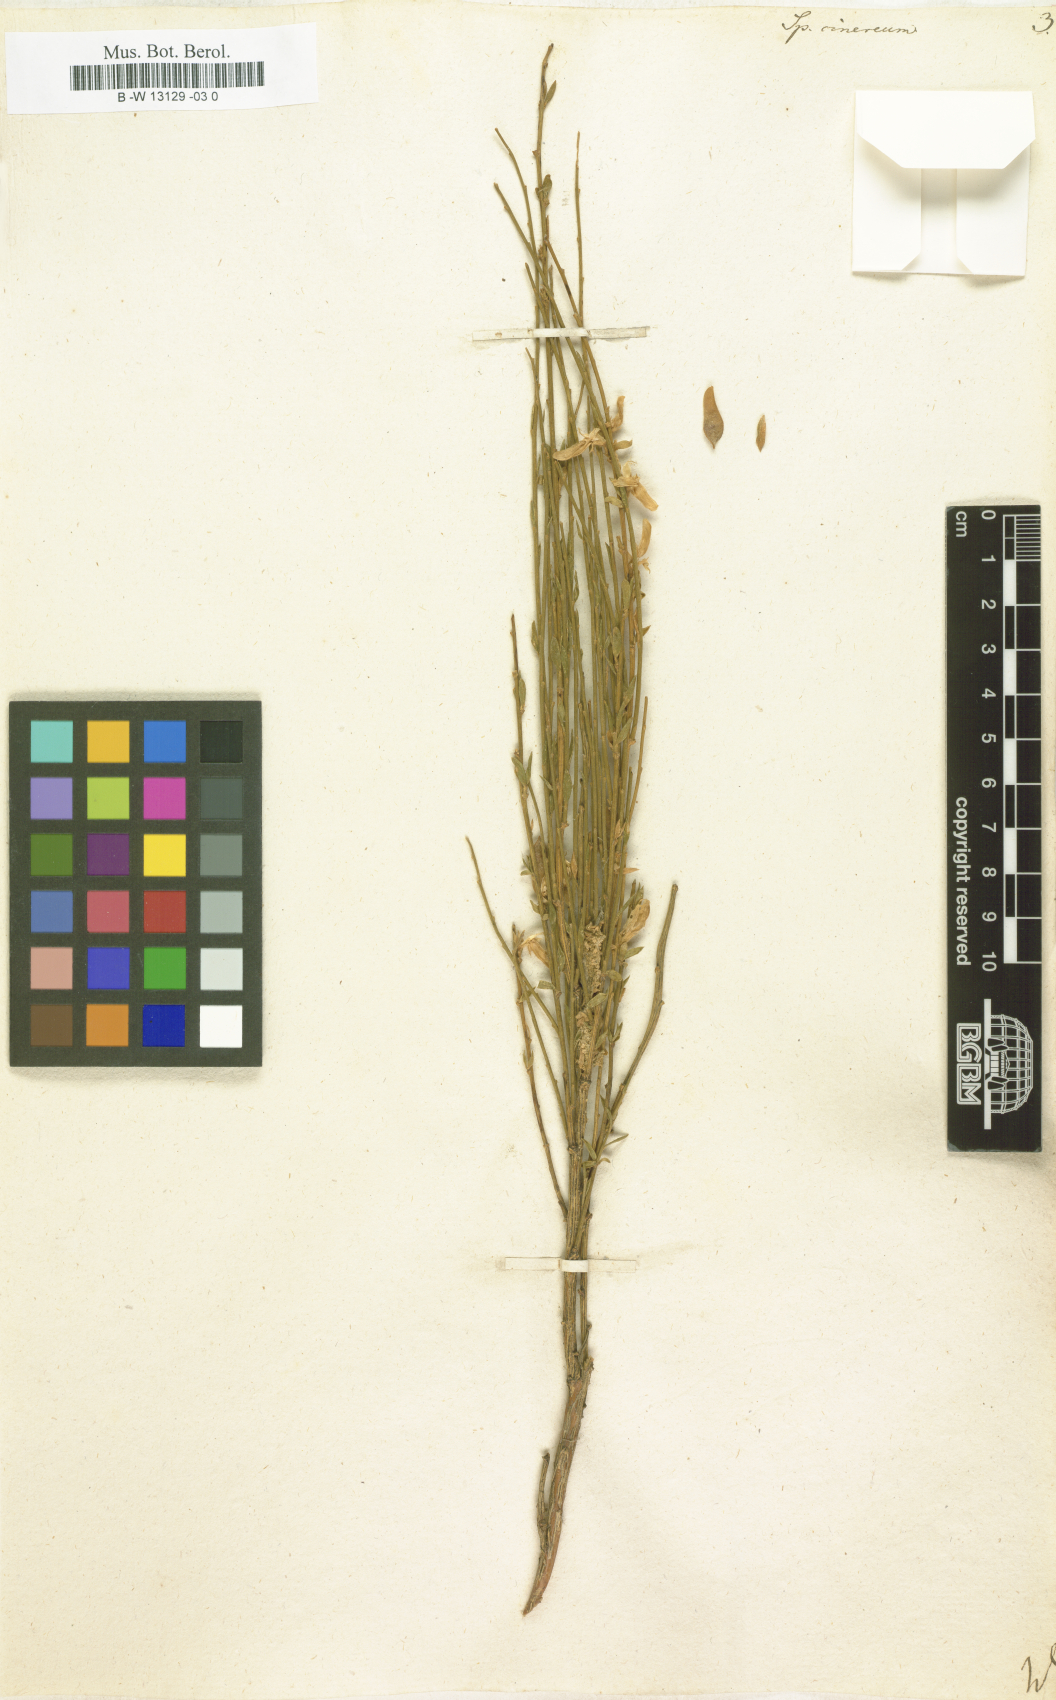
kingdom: Plantae
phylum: Tracheophyta
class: Magnoliopsida
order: Fabales
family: Fabaceae
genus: Genista
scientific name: Genista cinerea
